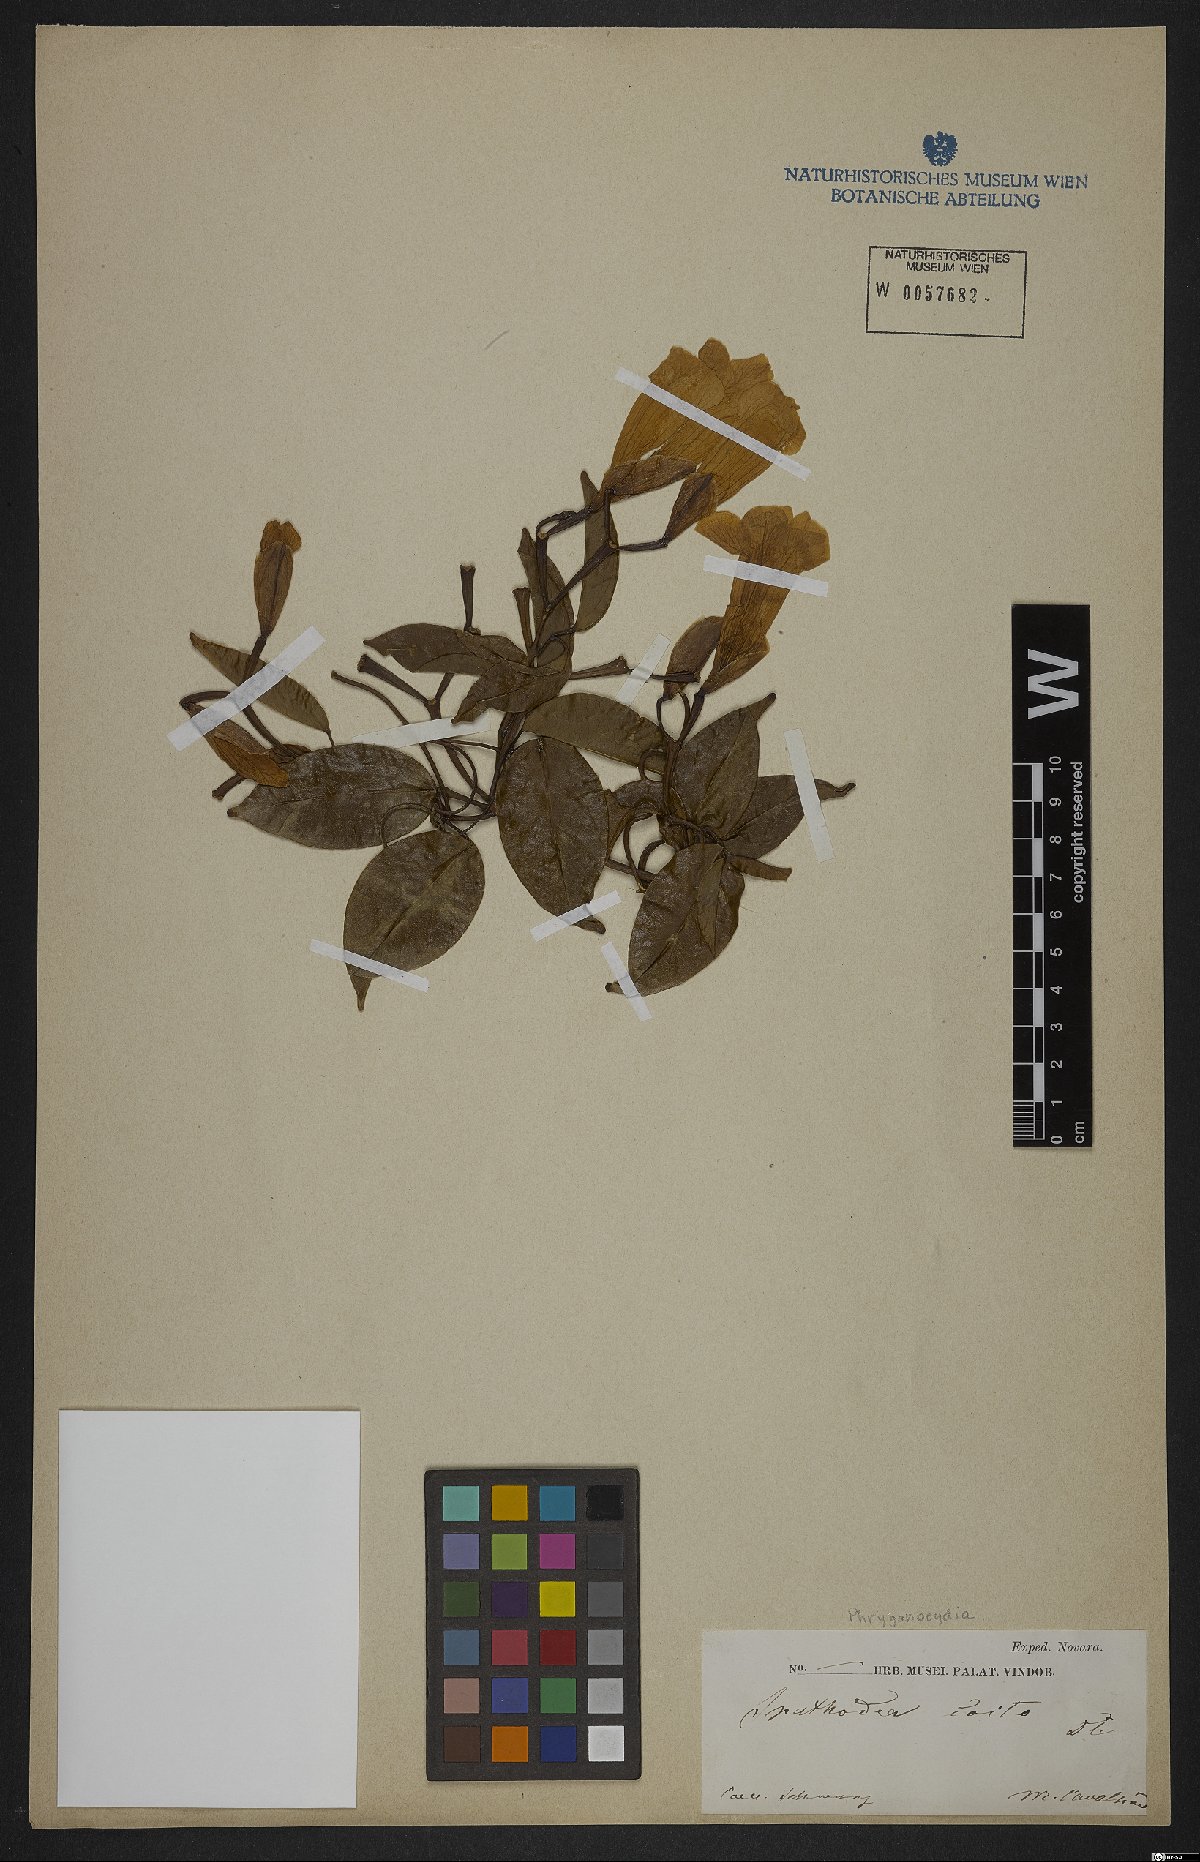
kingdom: Plantae
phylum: Tracheophyta
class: Magnoliopsida
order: Lamiales
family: Bignoniaceae
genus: Phryganocydia
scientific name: Phryganocydia
